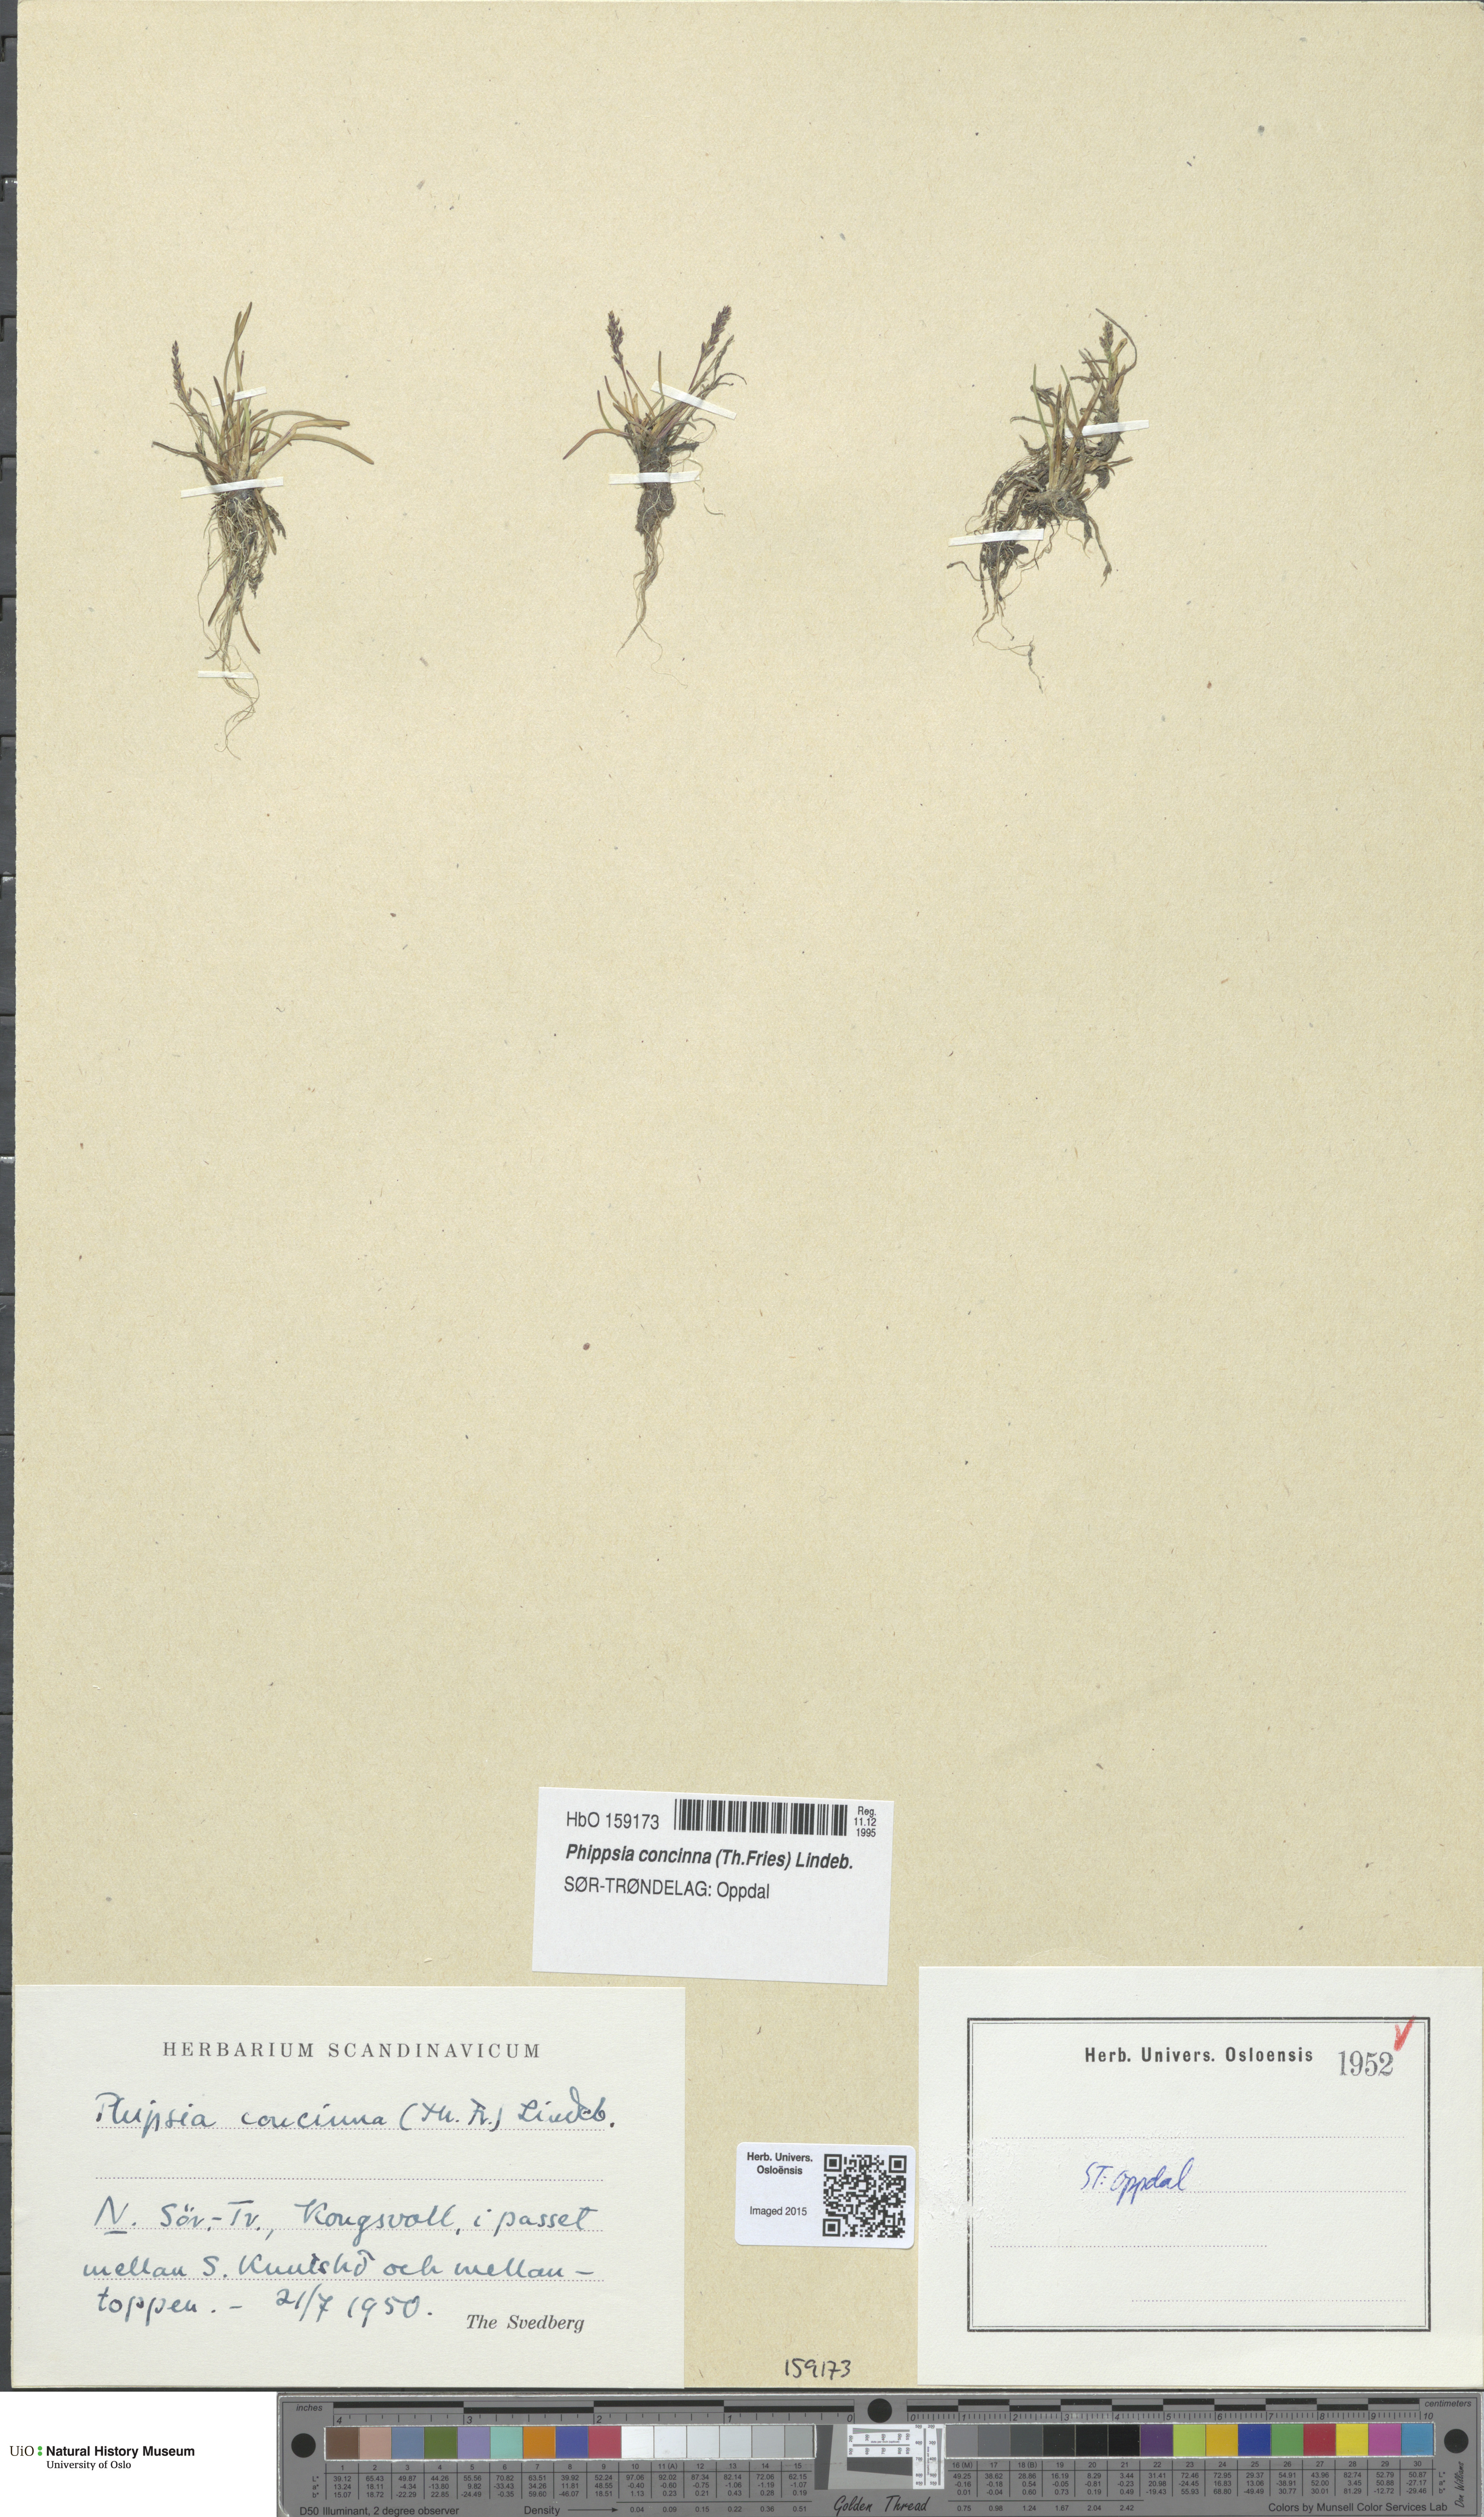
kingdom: Plantae
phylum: Tracheophyta
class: Liliopsida
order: Poales
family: Poaceae
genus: Phippsia
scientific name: Phippsia concinna
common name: Snowgrass
